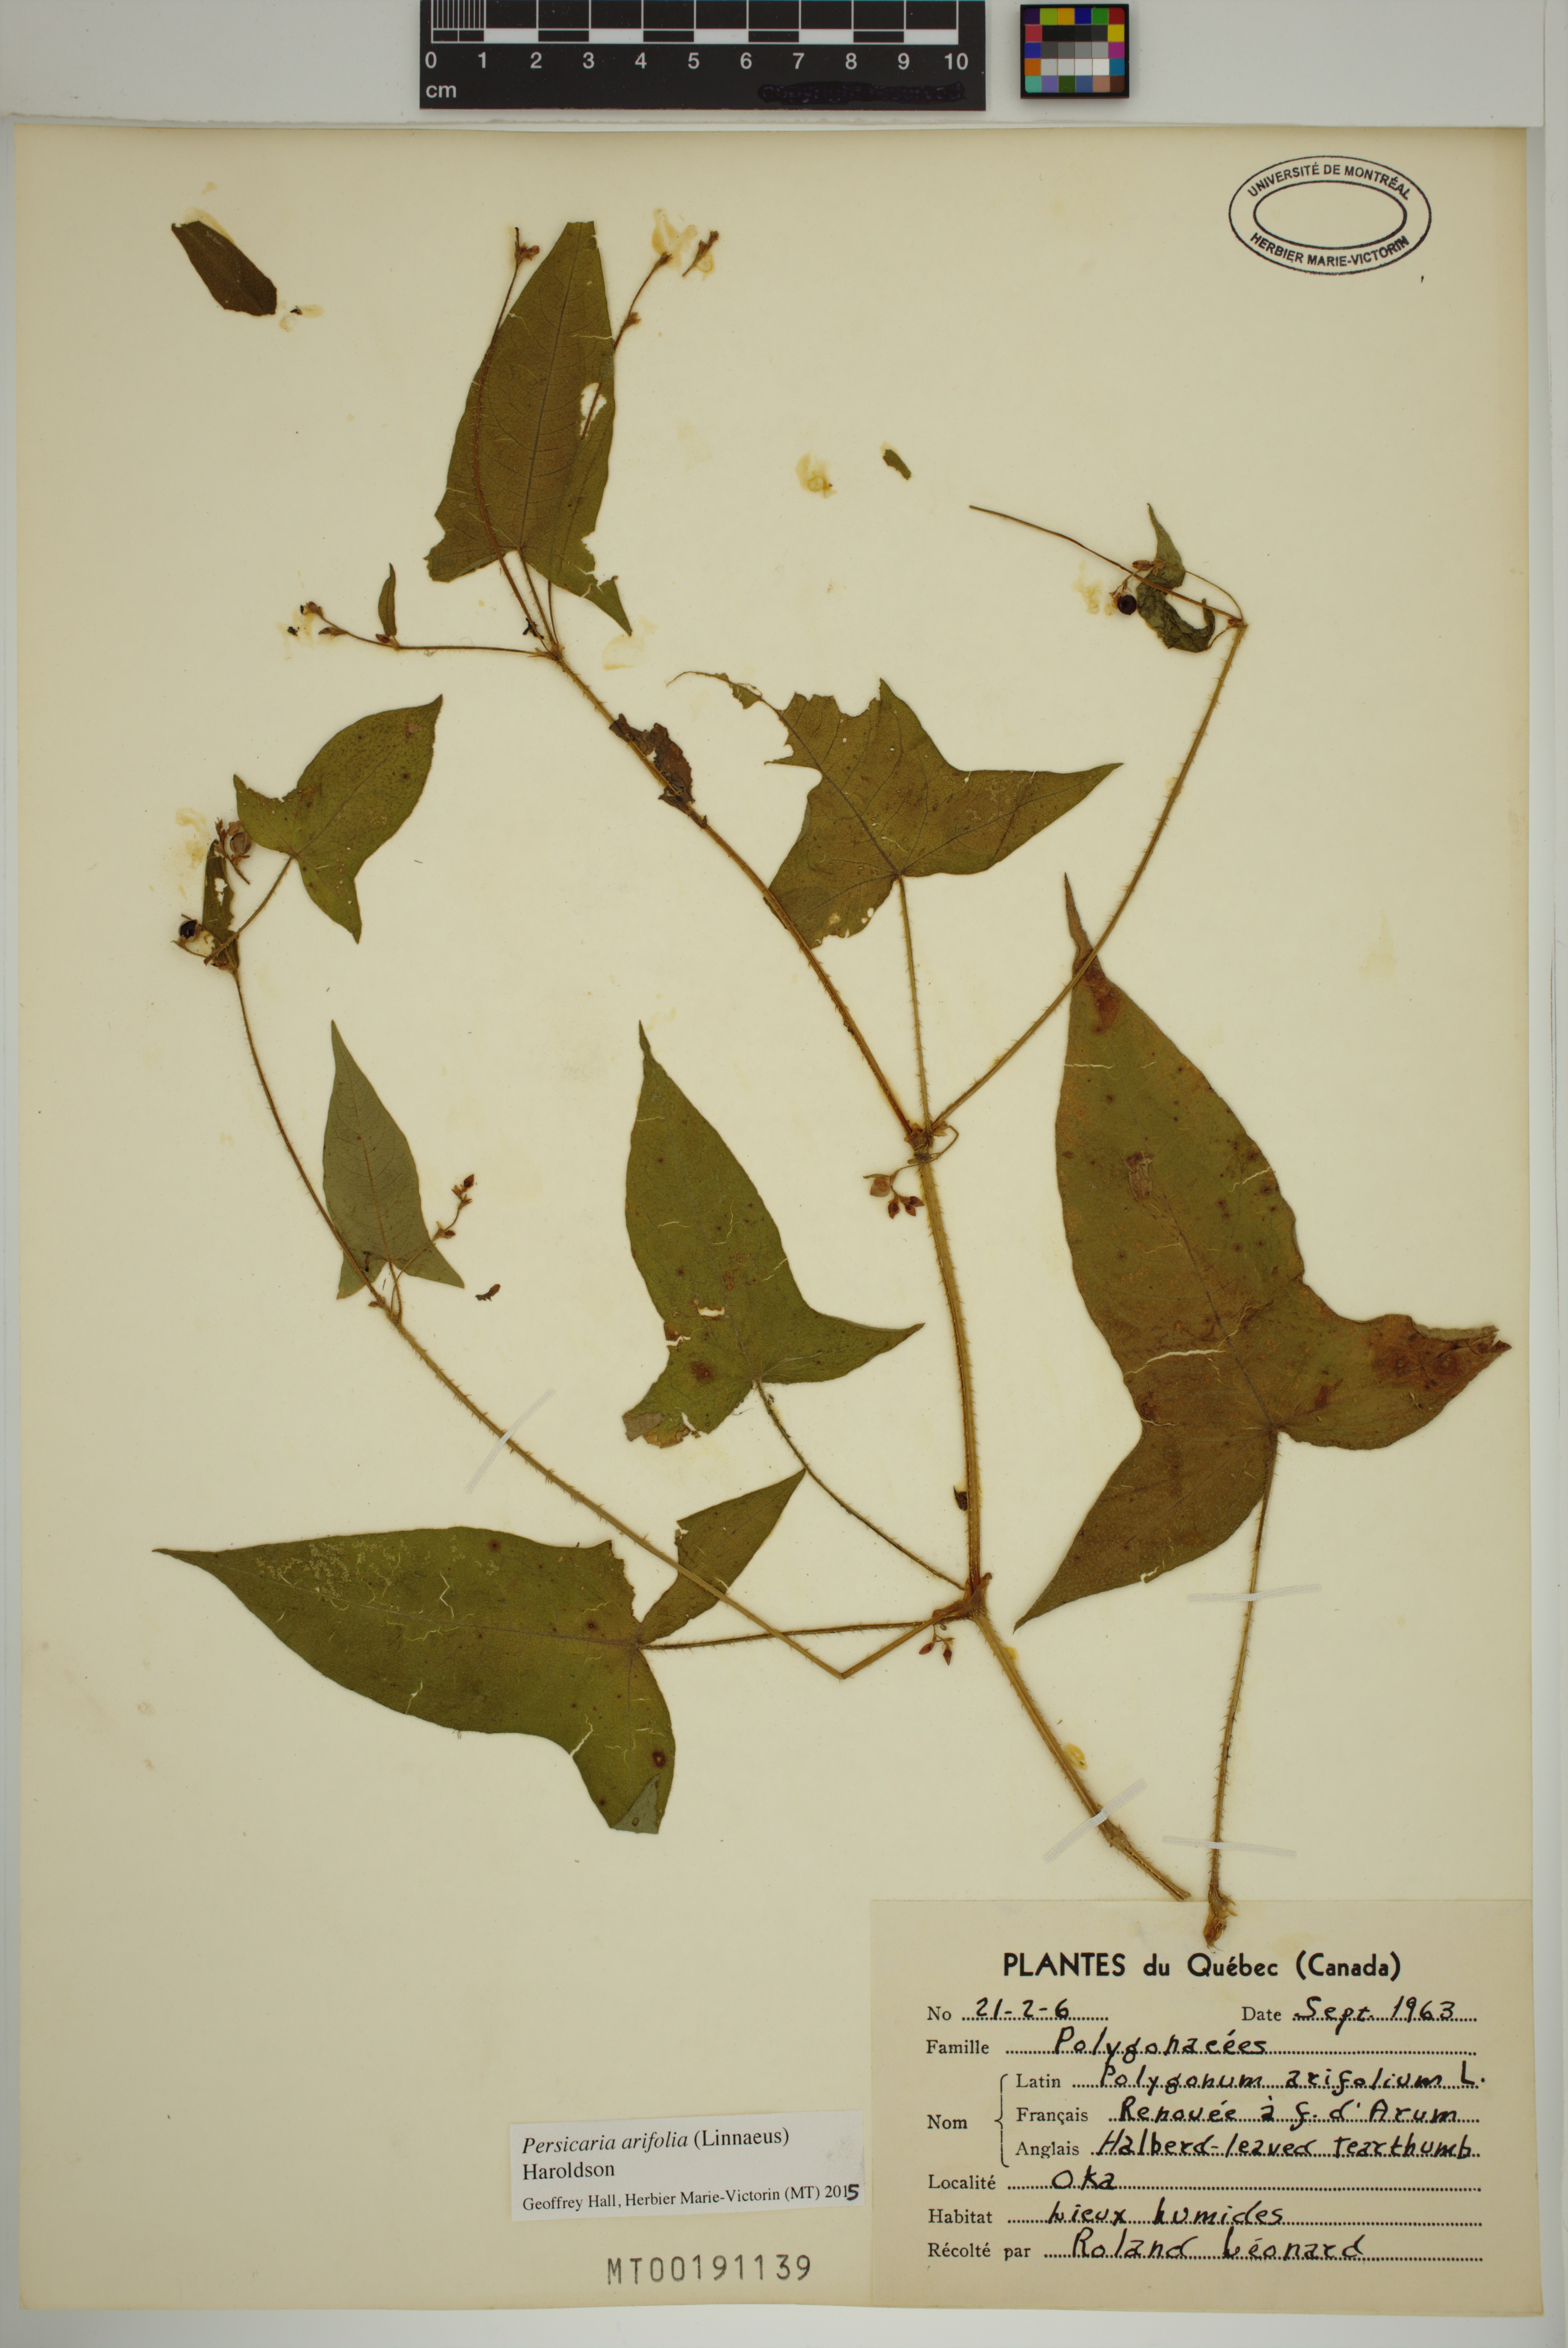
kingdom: Plantae
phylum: Tracheophyta
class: Magnoliopsida
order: Caryophyllales
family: Polygonaceae
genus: Persicaria
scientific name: Persicaria arifolia
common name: Halberd-leaved tear-thumb
